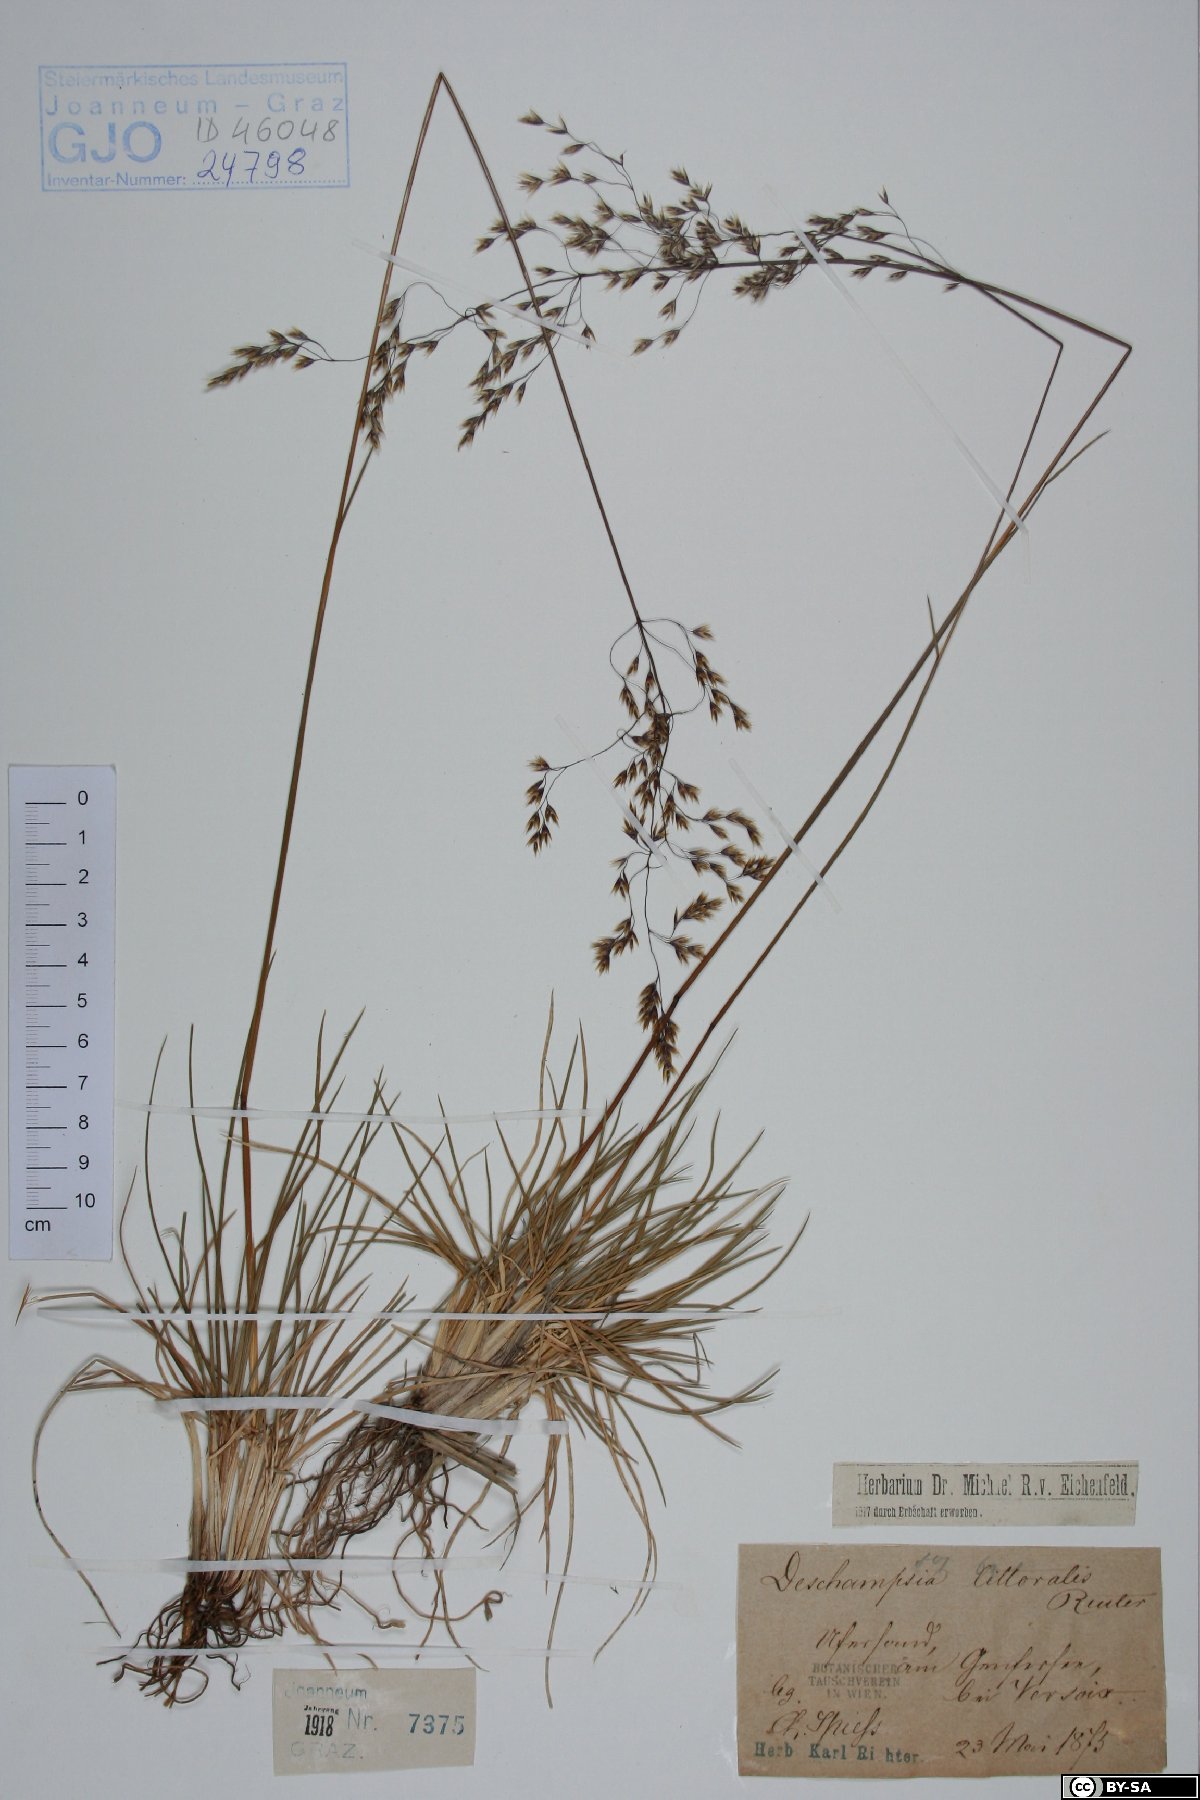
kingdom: Plantae
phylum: Tracheophyta
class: Liliopsida
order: Poales
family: Poaceae
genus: Deschampsia
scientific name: Deschampsia cespitosa
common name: Tufted hair-grass
